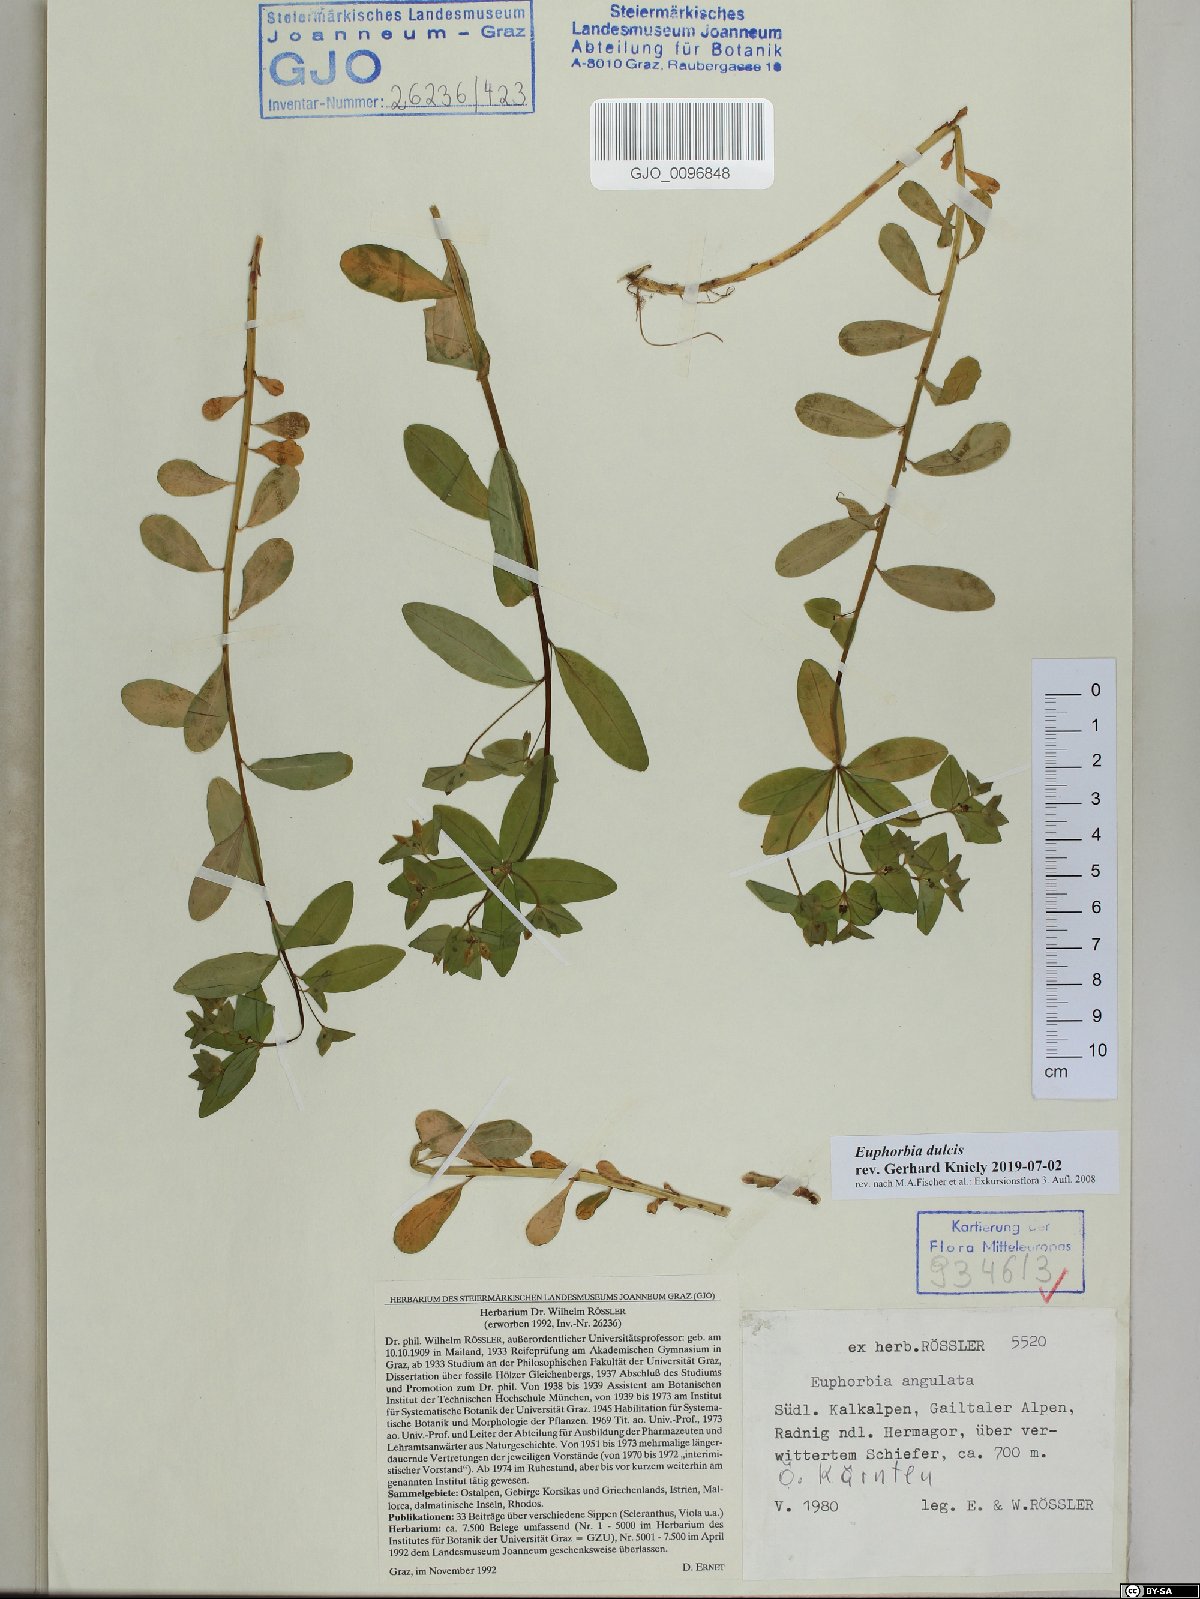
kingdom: Plantae
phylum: Tracheophyta
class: Magnoliopsida
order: Malpighiales
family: Euphorbiaceae
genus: Euphorbia
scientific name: Euphorbia dulcis
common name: Sweet spurge
